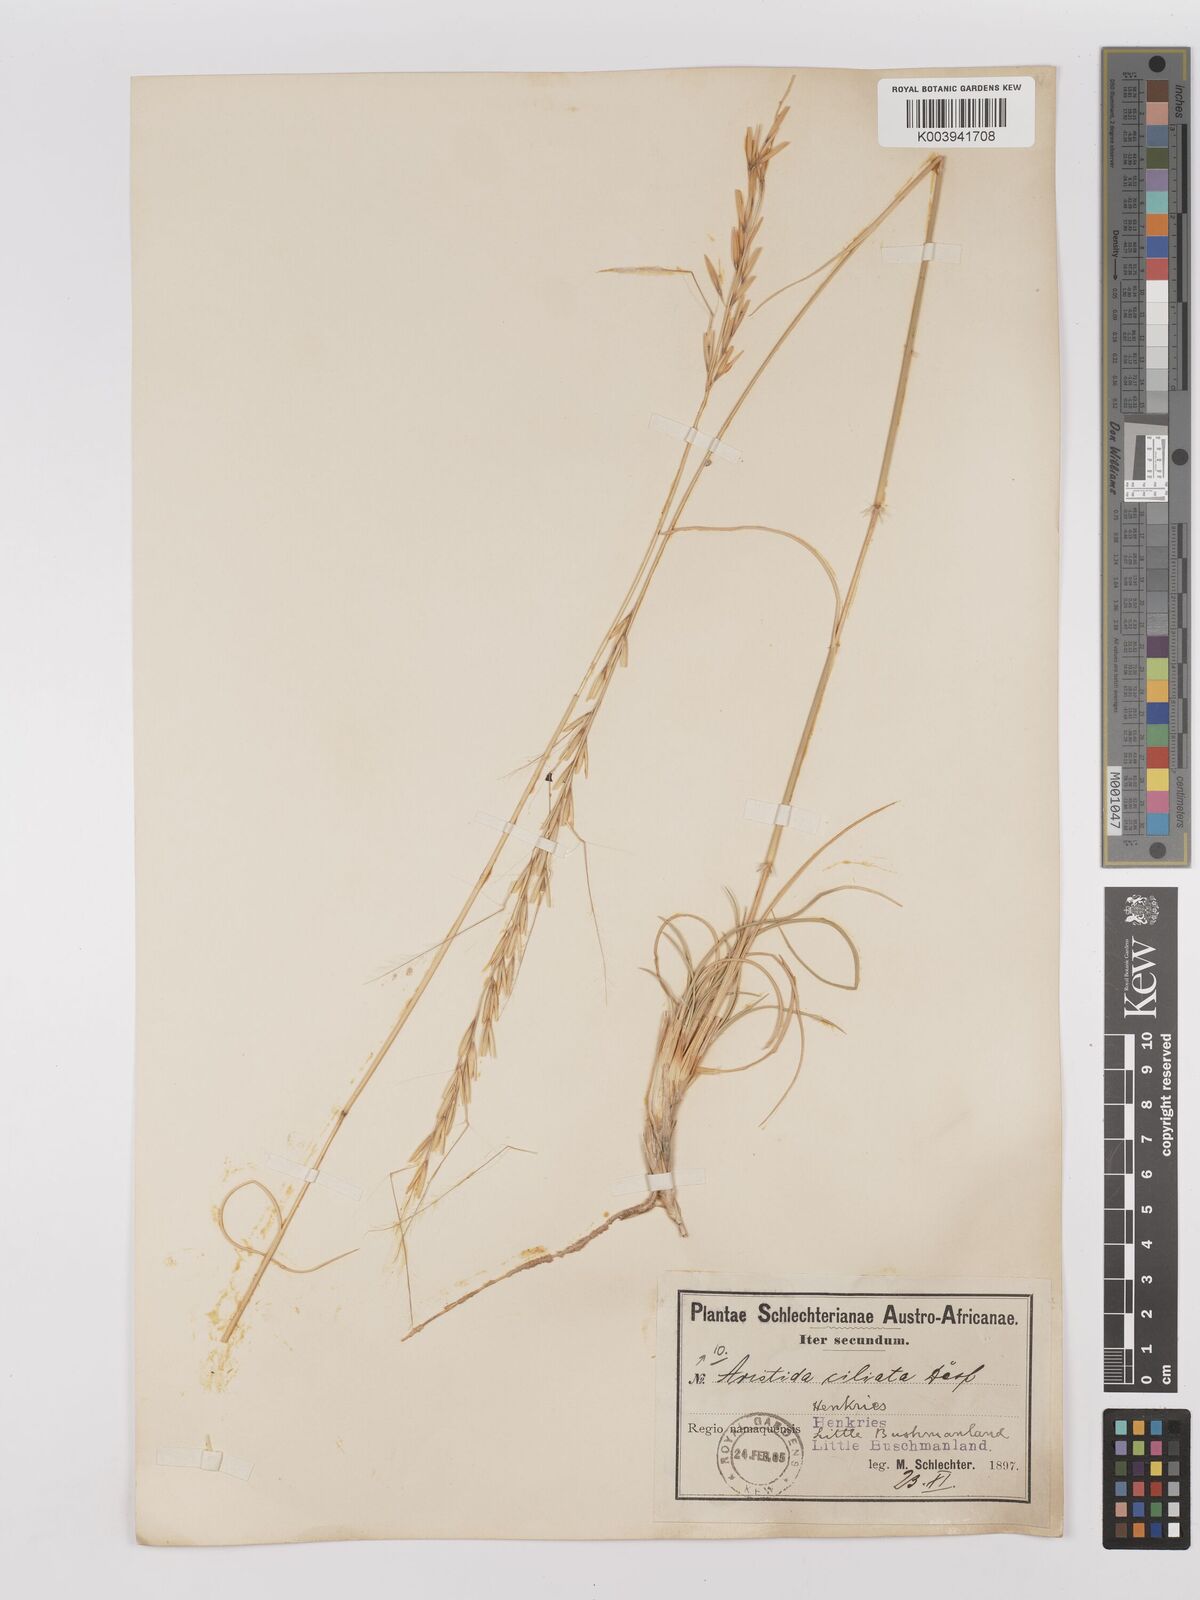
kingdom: Plantae
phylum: Tracheophyta
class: Liliopsida
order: Poales
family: Poaceae
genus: Stipagrostis
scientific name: Stipagrostis ciliata
